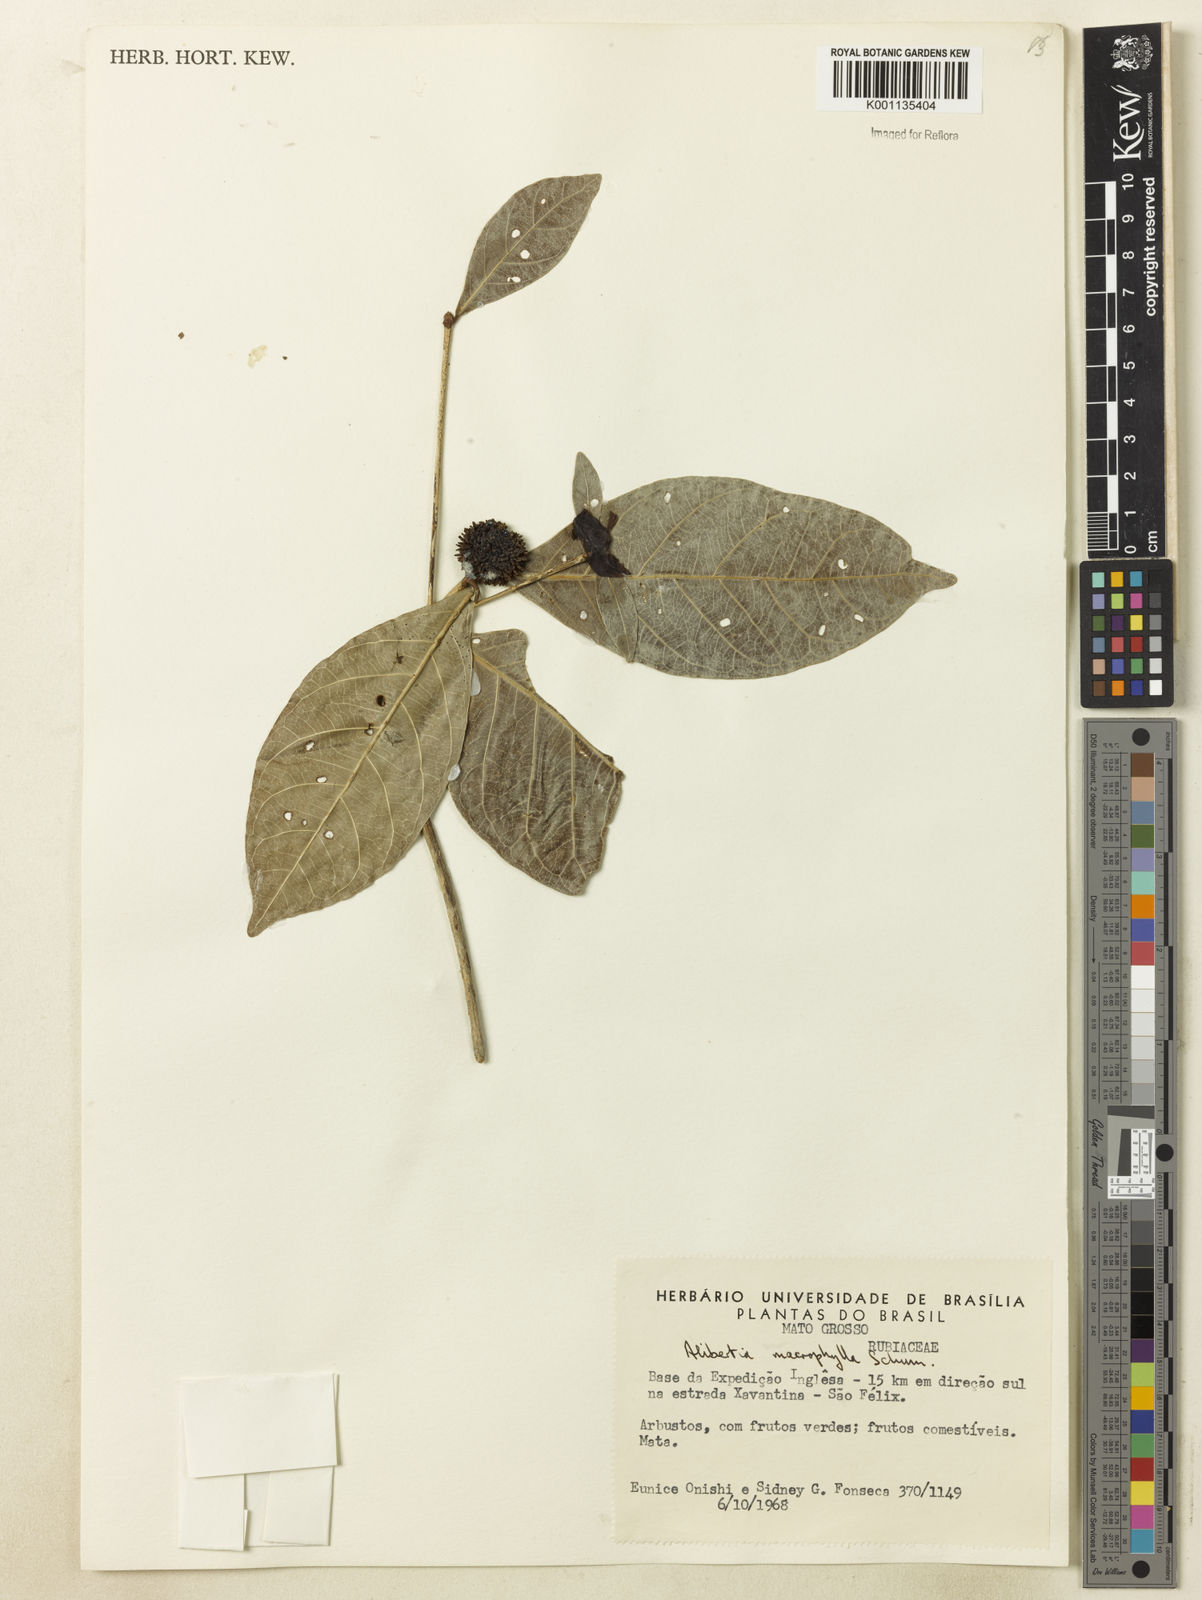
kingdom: Plantae
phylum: Tracheophyta
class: Magnoliopsida
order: Gentianales
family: Rubiaceae
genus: Cordiera
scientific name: Cordiera macrophylla
